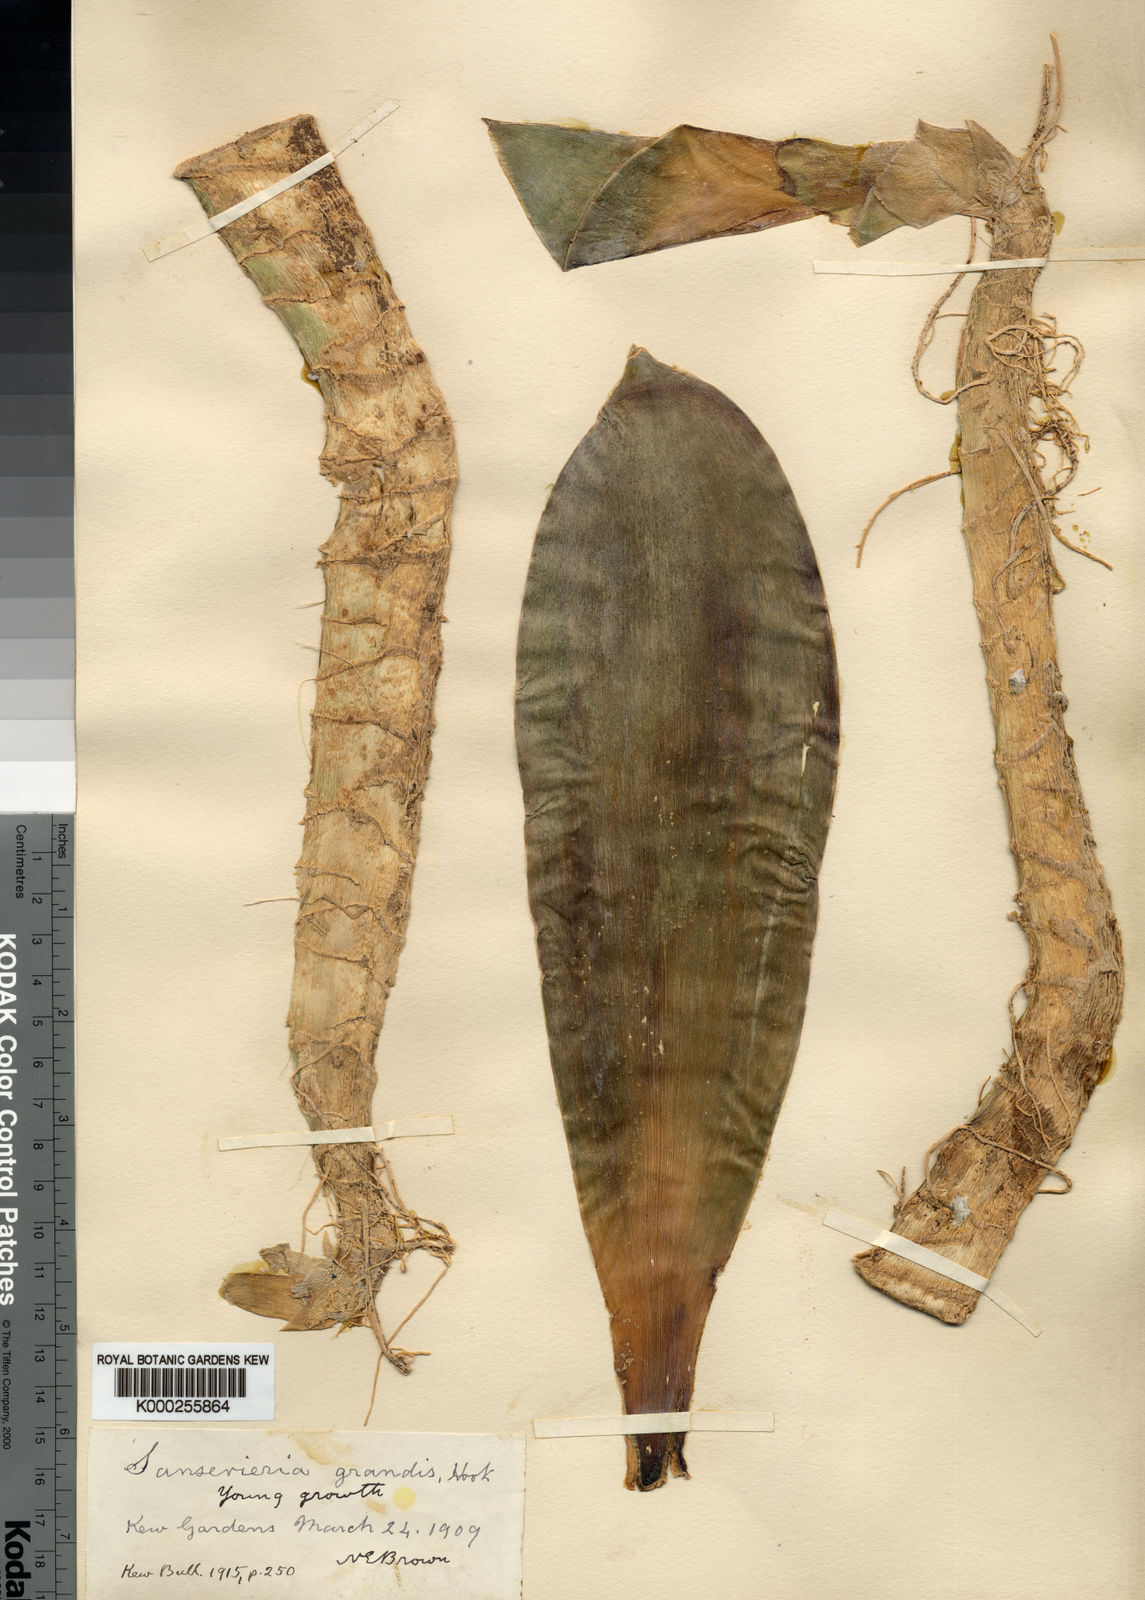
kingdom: Plantae
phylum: Tracheophyta
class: Liliopsida
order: Asparagales
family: Asparagaceae
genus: Dracaena
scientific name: Dracaena hyacinthoides
